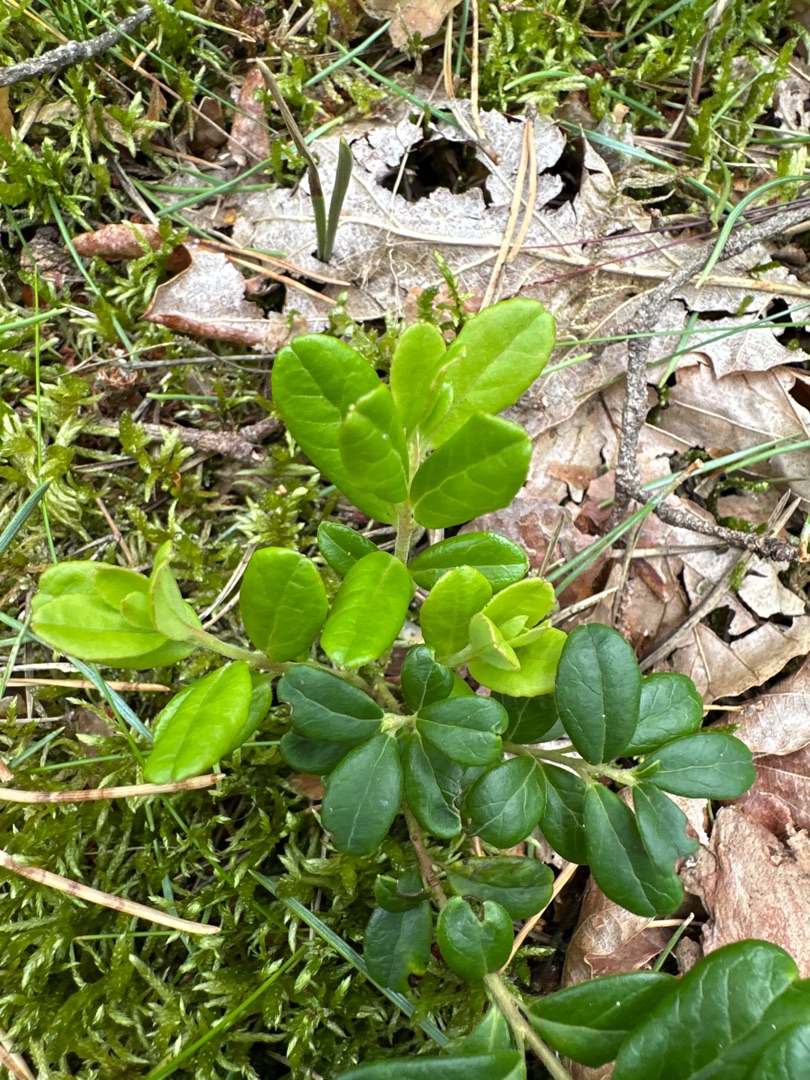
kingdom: Plantae
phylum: Tracheophyta
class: Magnoliopsida
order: Ericales
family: Ericaceae
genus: Vaccinium
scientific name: Vaccinium vitis-idaea
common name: Tyttebær
